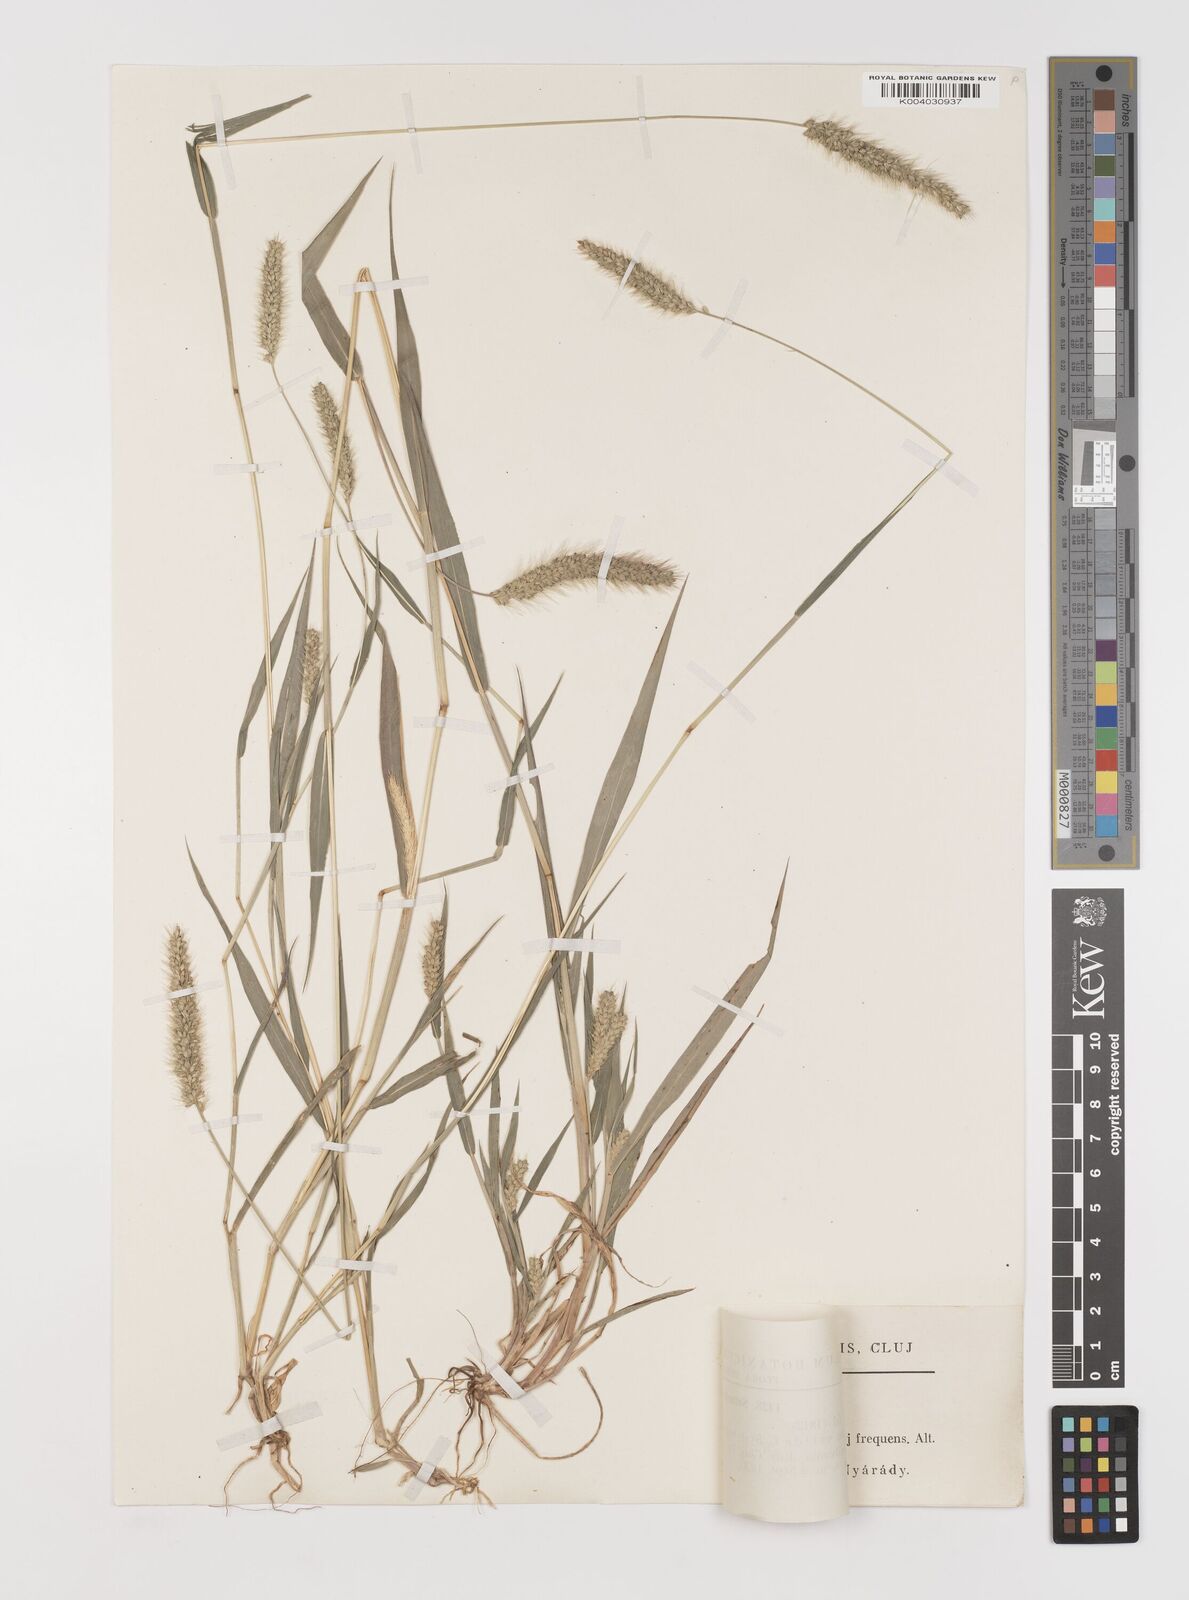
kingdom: Plantae
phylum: Tracheophyta
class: Liliopsida
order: Poales
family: Poaceae
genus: Setaria
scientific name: Setaria viridis
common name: Green bristlegrass
